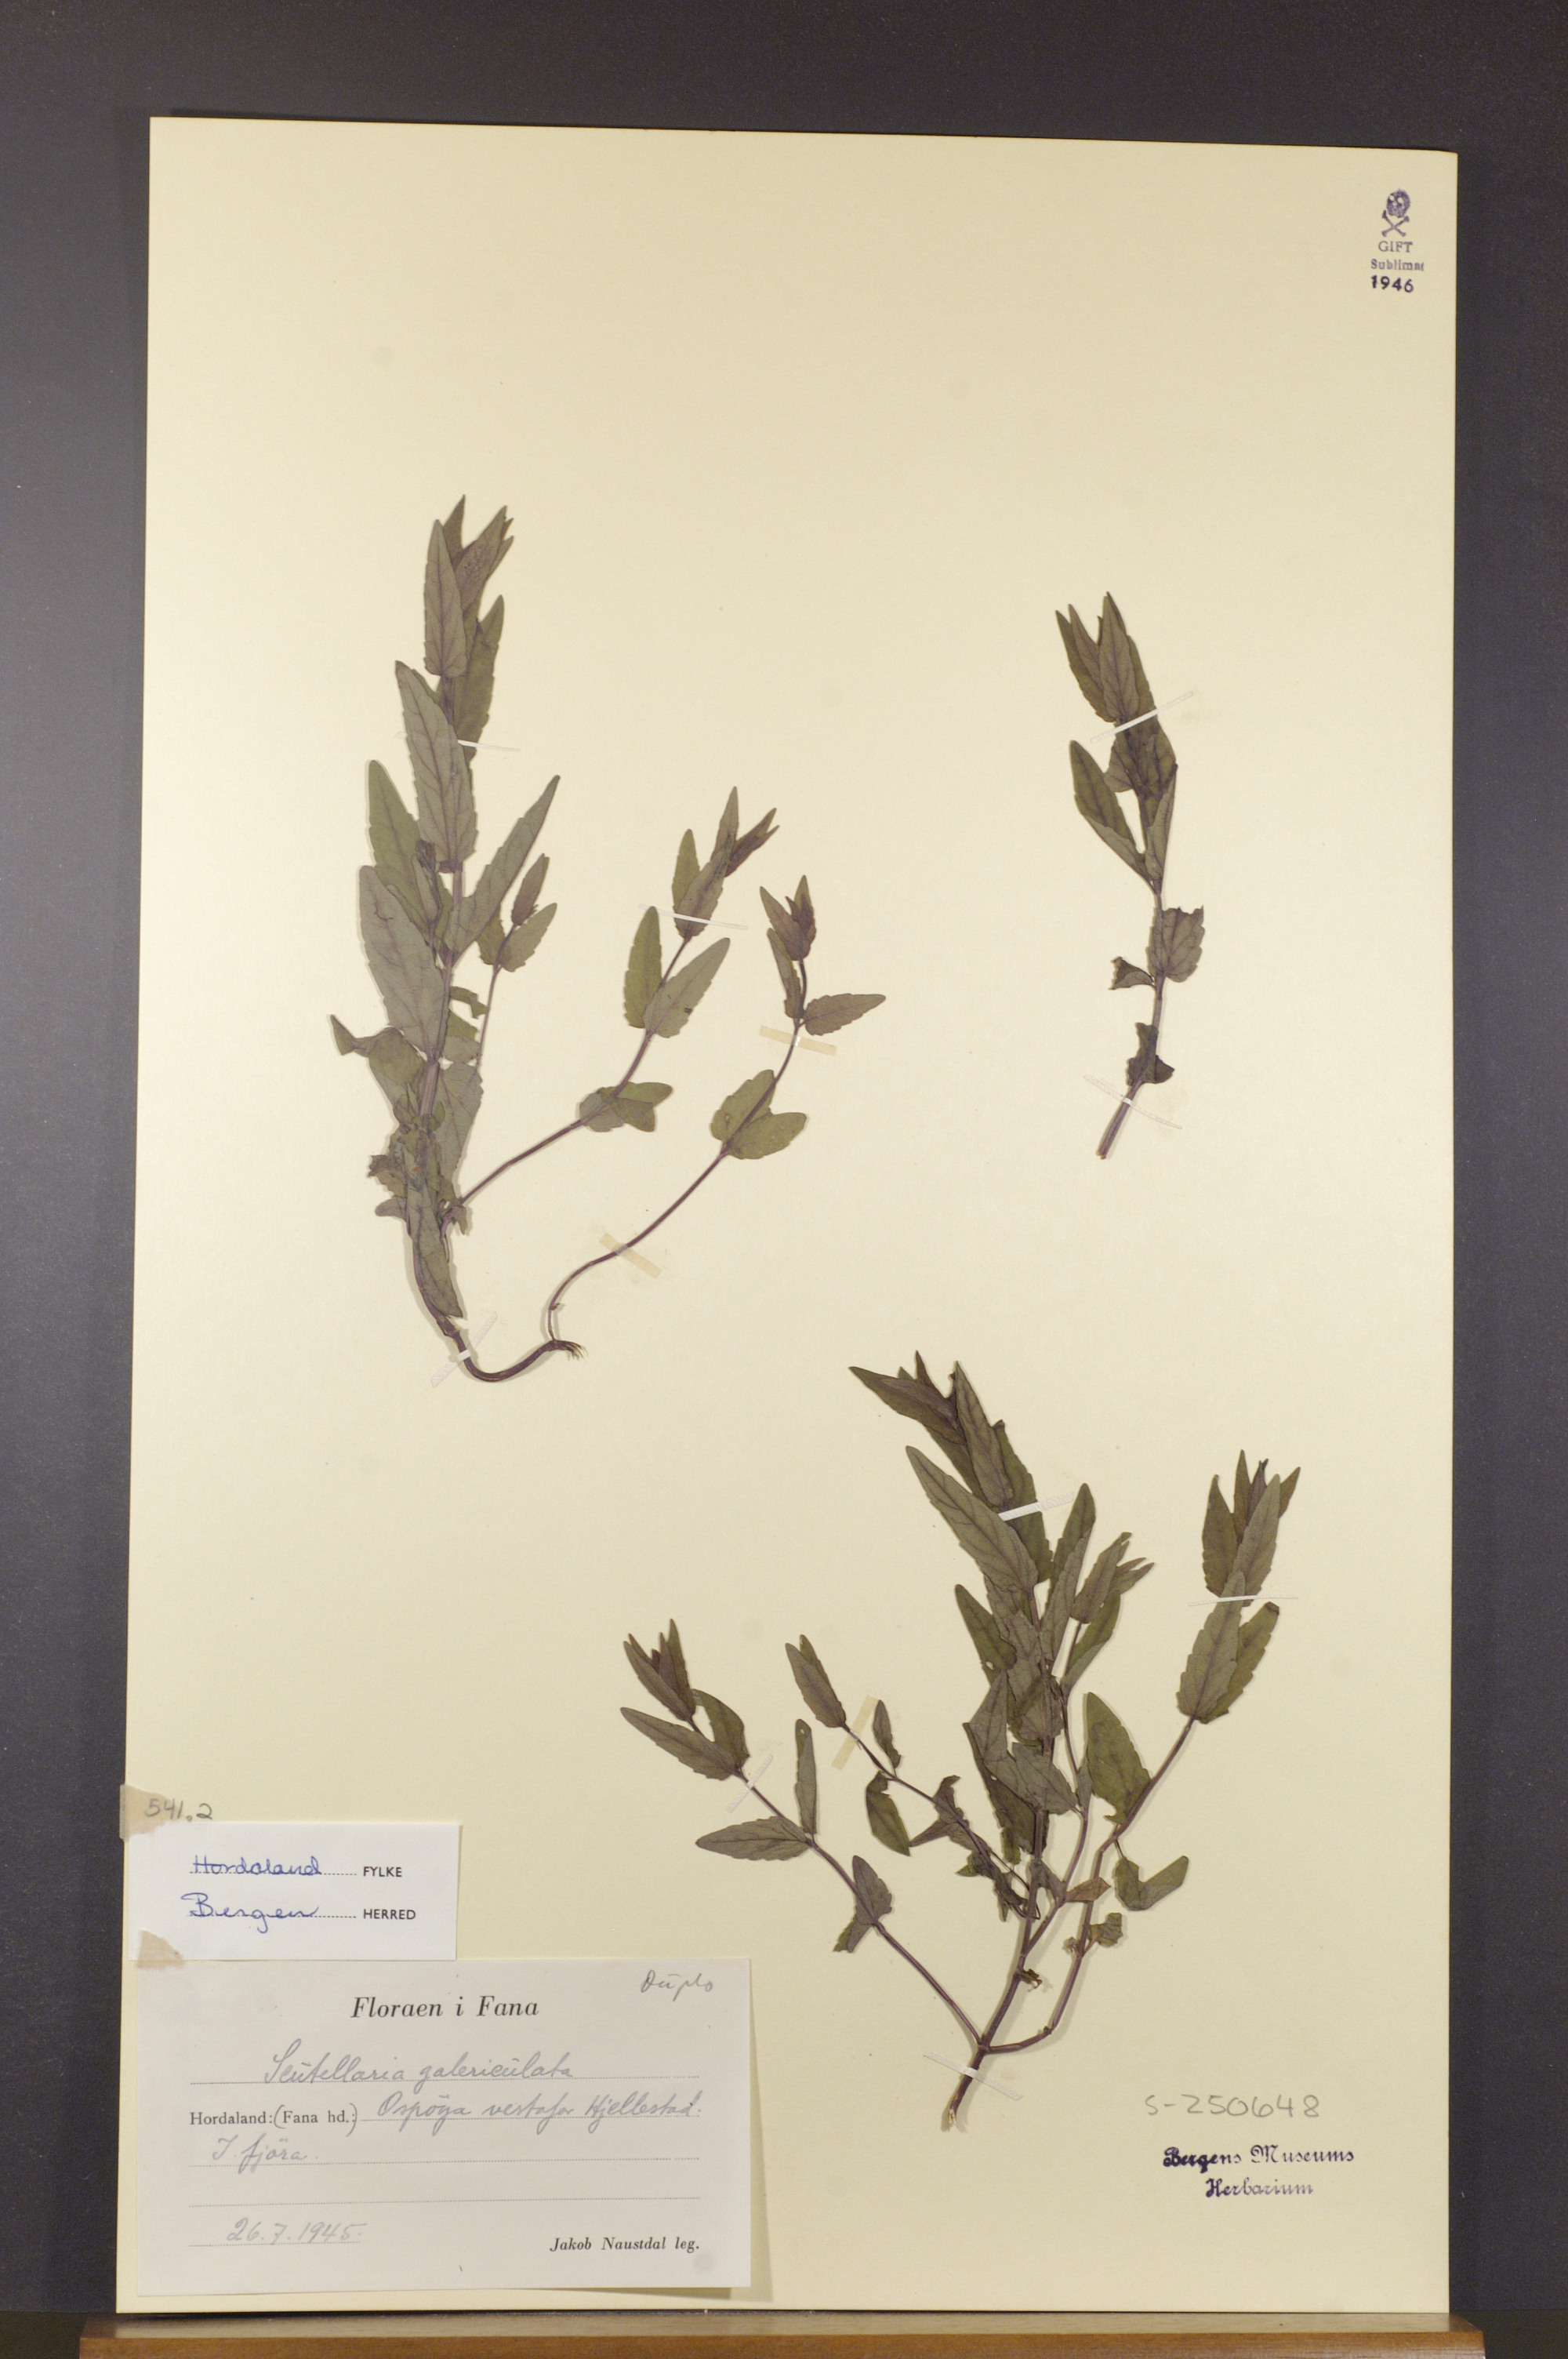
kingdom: Plantae
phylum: Tracheophyta
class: Magnoliopsida
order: Lamiales
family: Lamiaceae
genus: Scutellaria
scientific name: Scutellaria galericulata
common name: Skullcap
